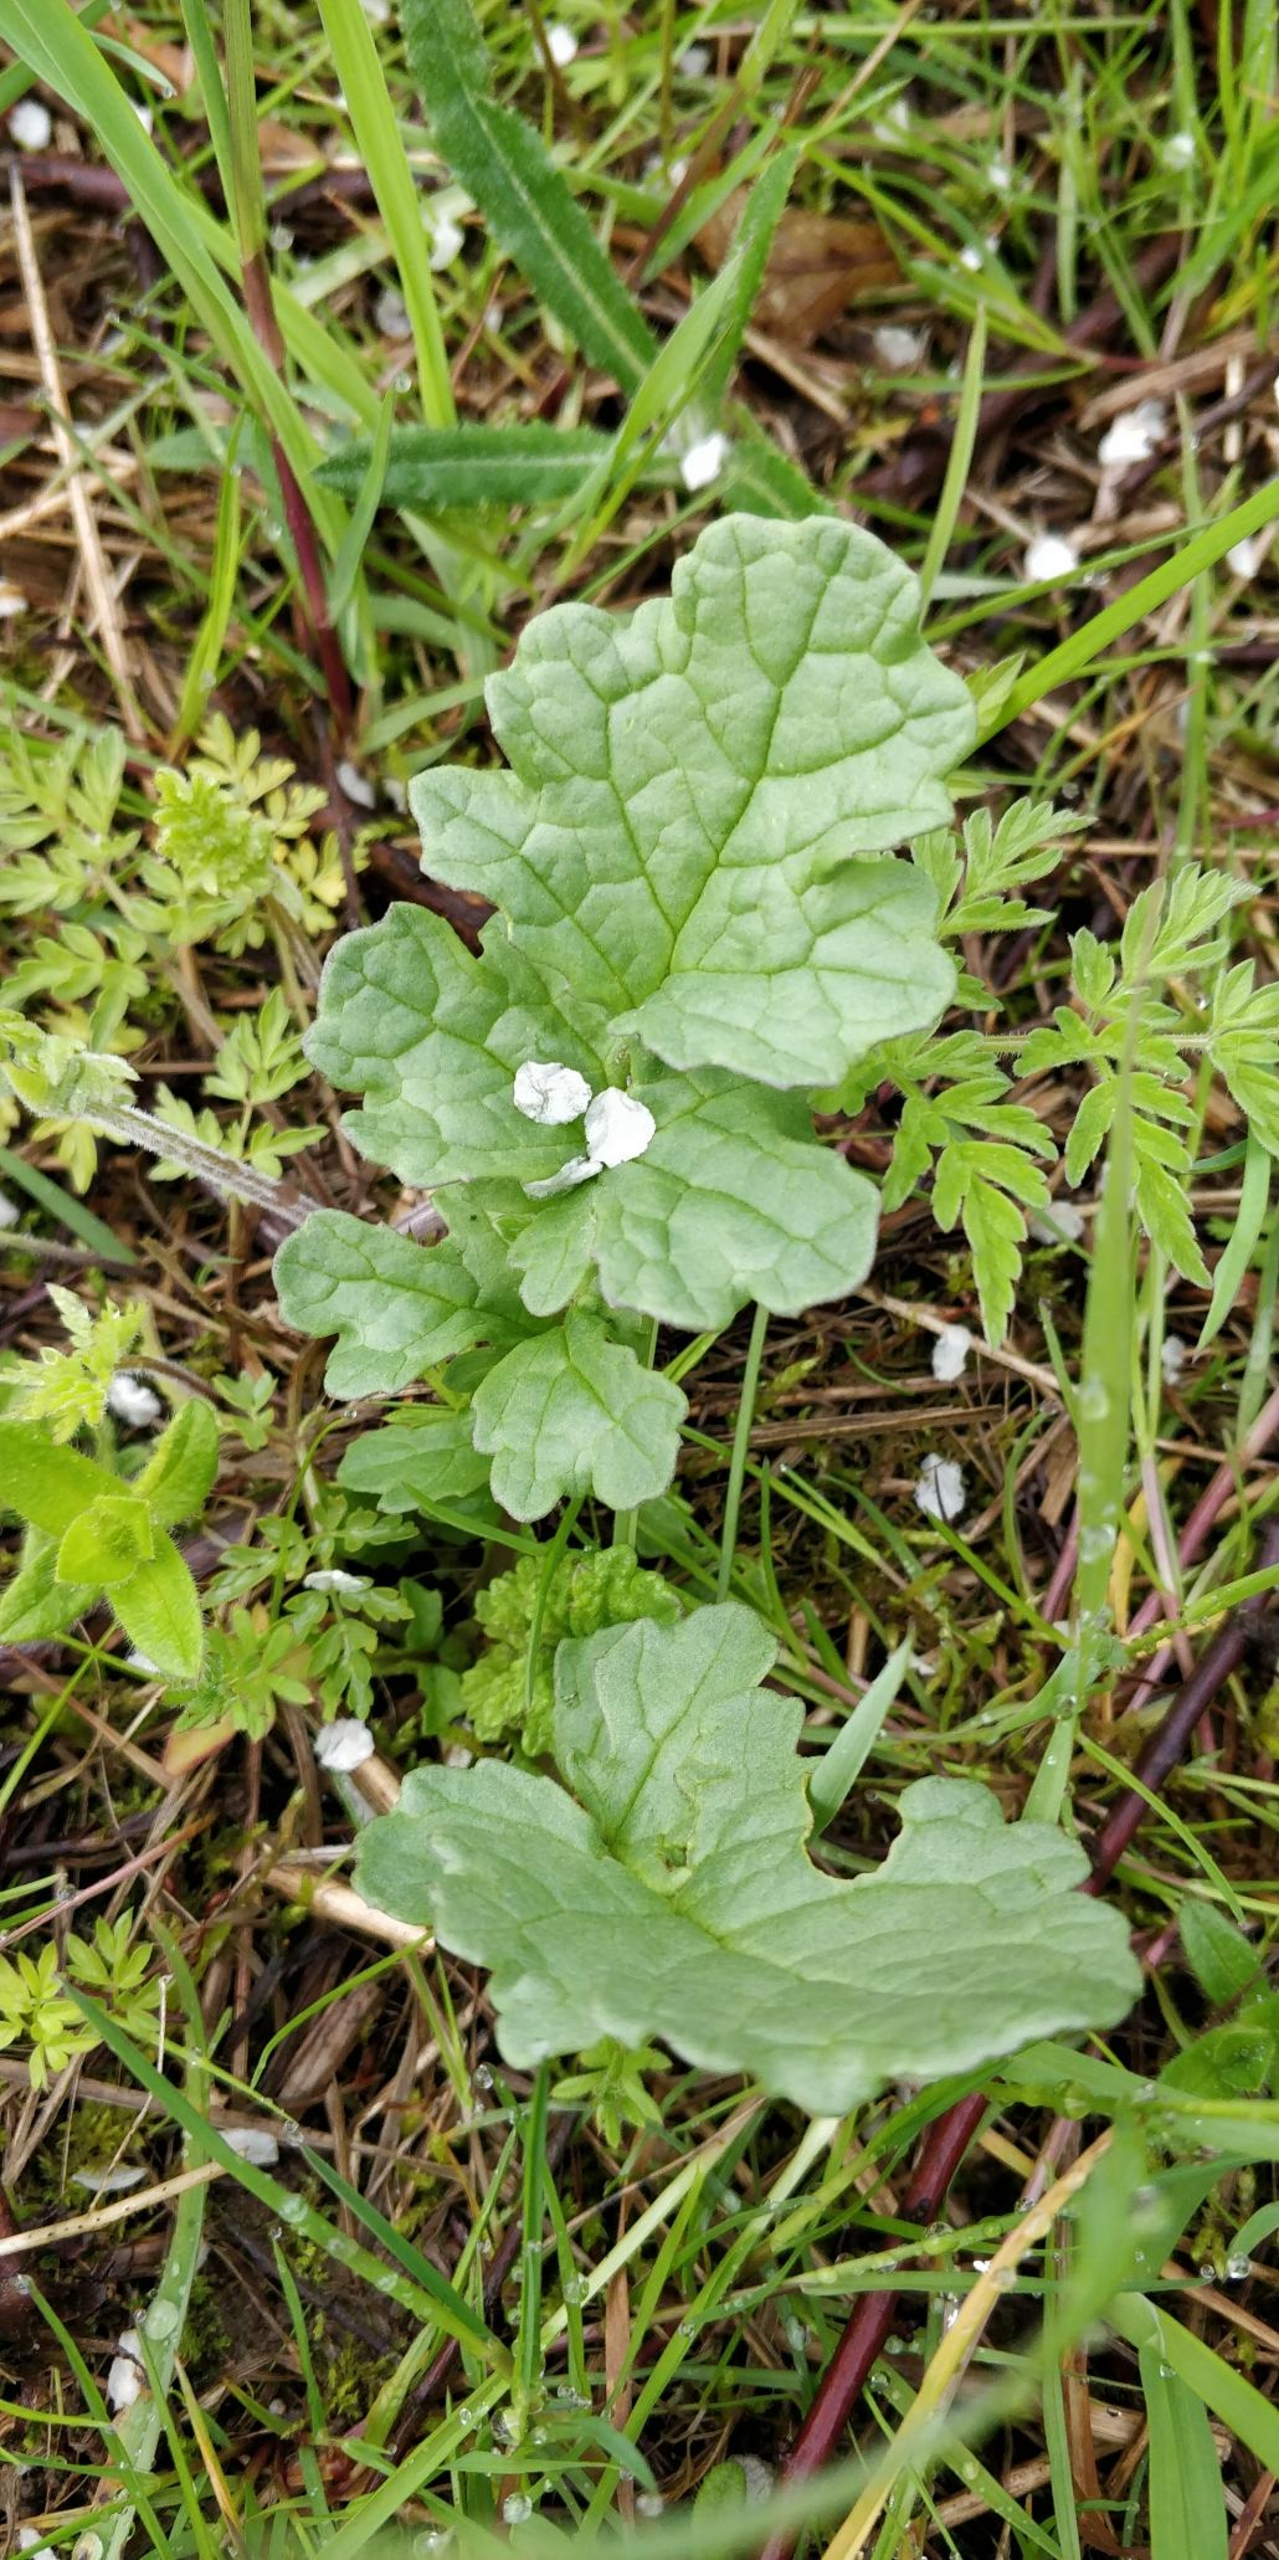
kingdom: Plantae
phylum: Tracheophyta
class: Magnoliopsida
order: Asterales
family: Asteraceae
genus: Jacobaea
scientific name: Jacobaea vulgaris
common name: Eng-brandbæger
